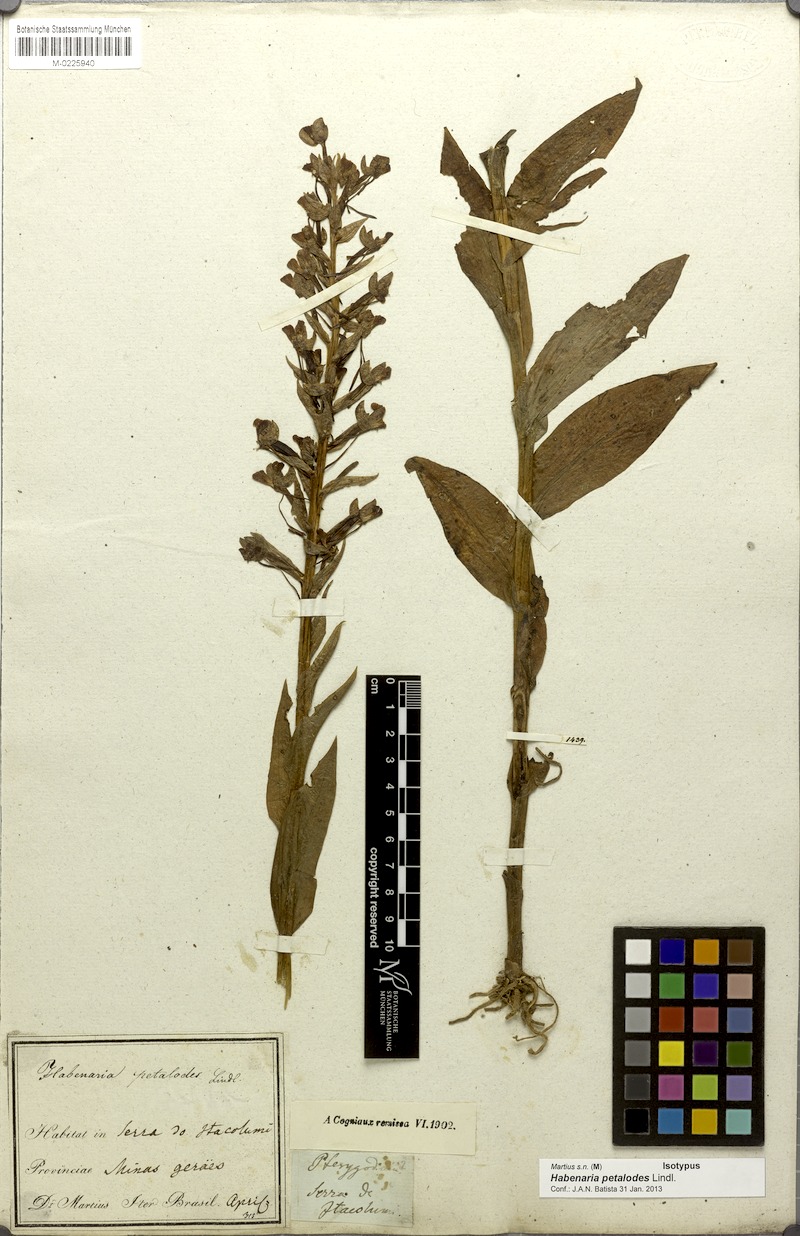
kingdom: Plantae
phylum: Tracheophyta
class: Liliopsida
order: Asparagales
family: Orchidaceae
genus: Habenaria
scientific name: Habenaria petalodes
